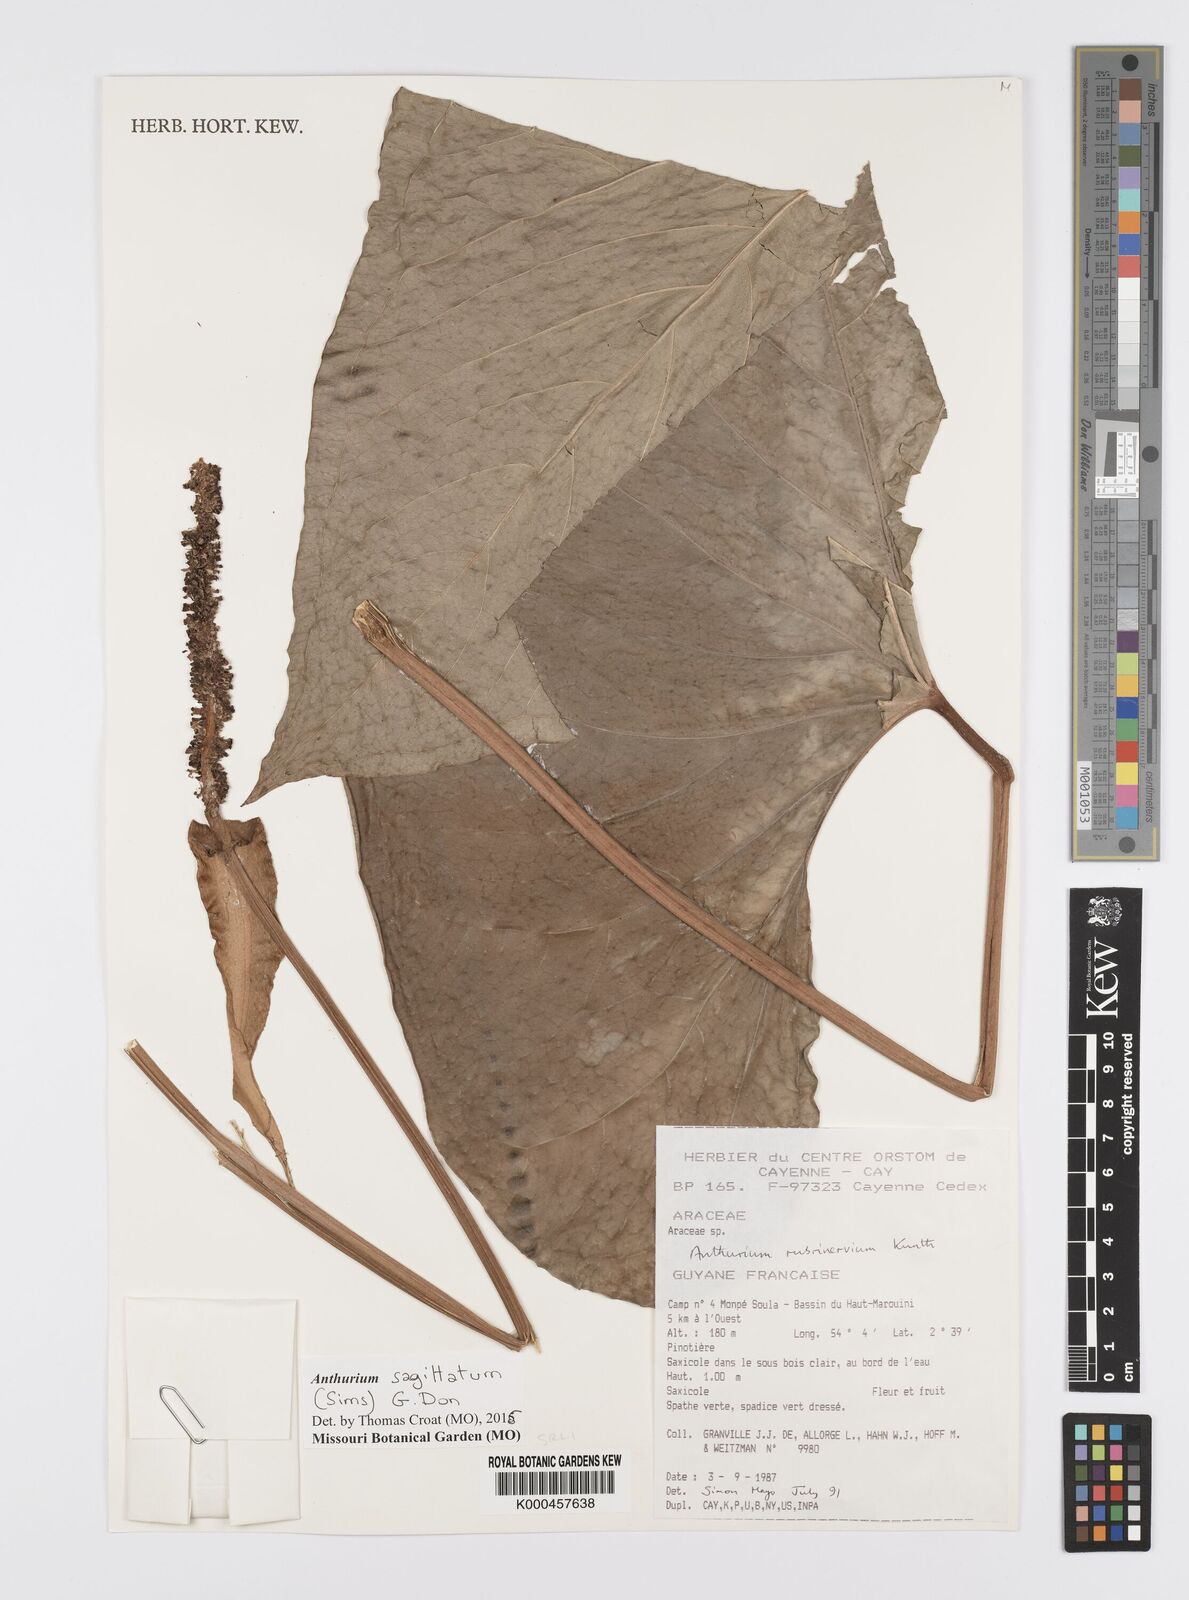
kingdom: Plantae
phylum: Tracheophyta
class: Liliopsida
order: Alismatales
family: Araceae
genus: Anthurium
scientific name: Anthurium sagittatum
